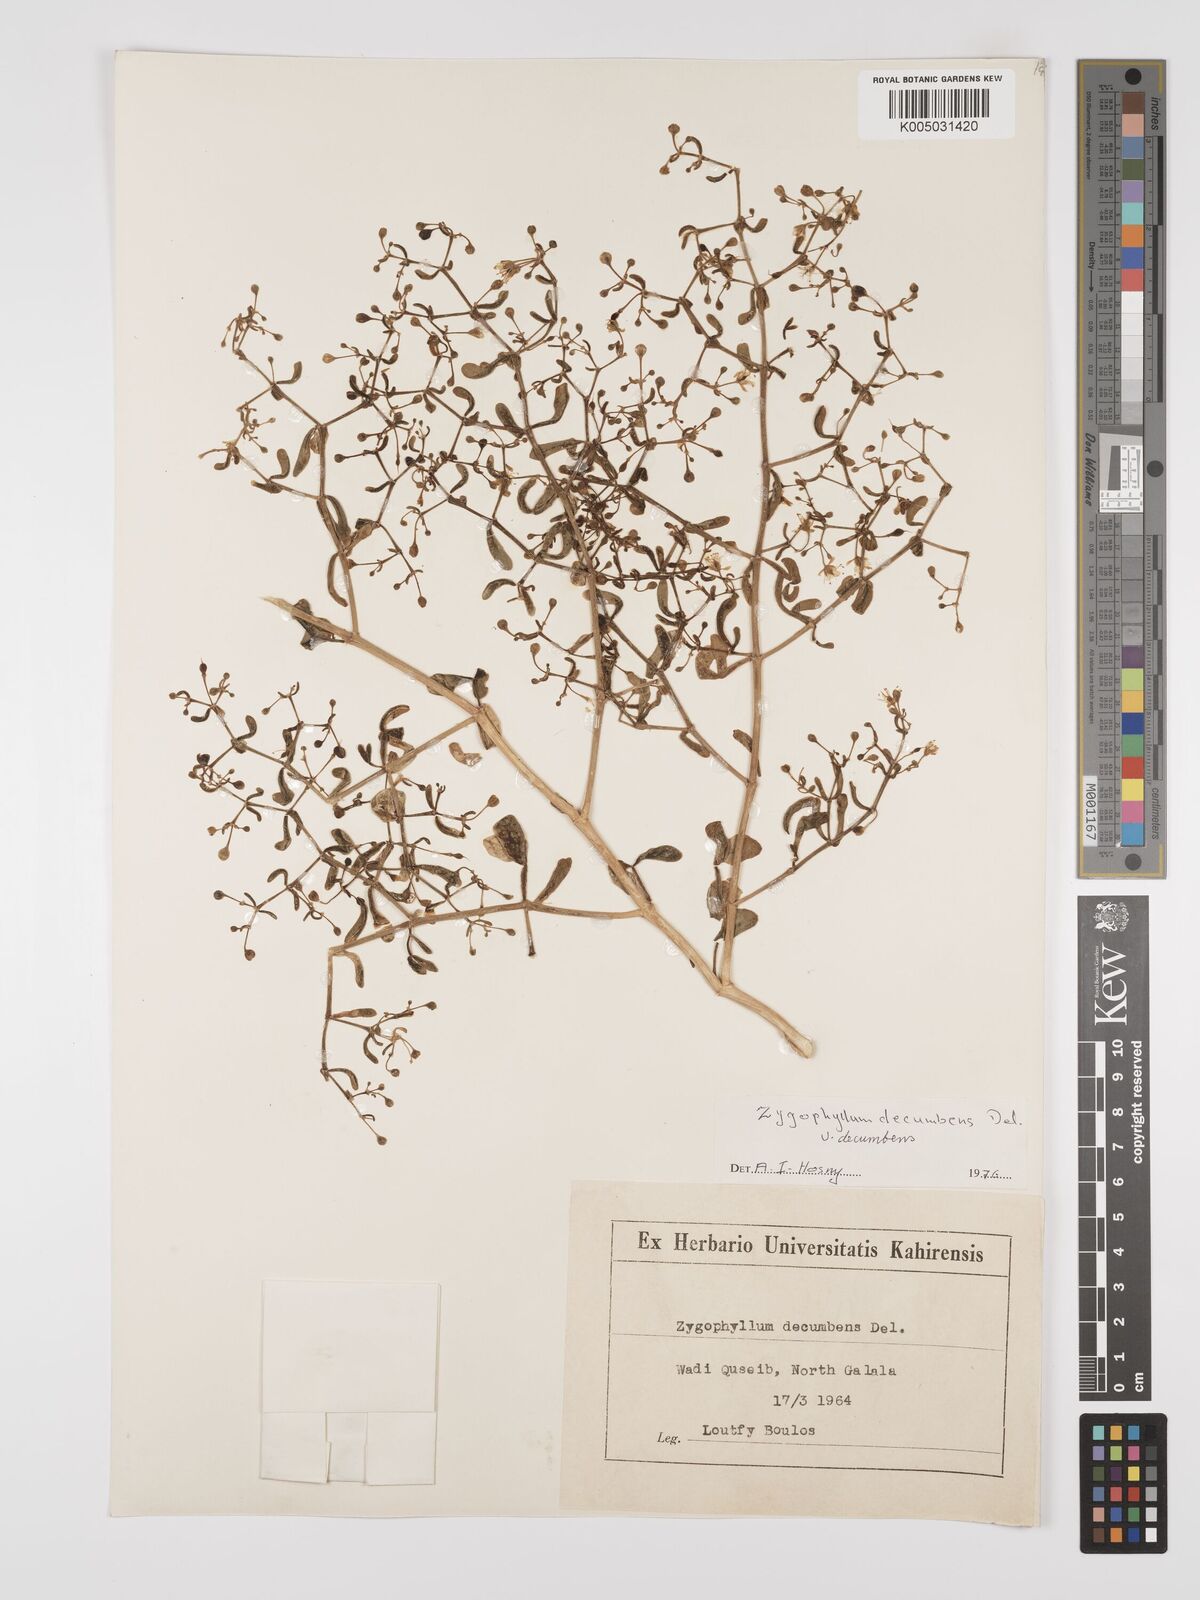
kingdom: Plantae
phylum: Tracheophyta
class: Magnoliopsida
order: Zygophyllales
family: Zygophyllaceae
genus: Tetraena
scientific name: Tetraena decumbens
